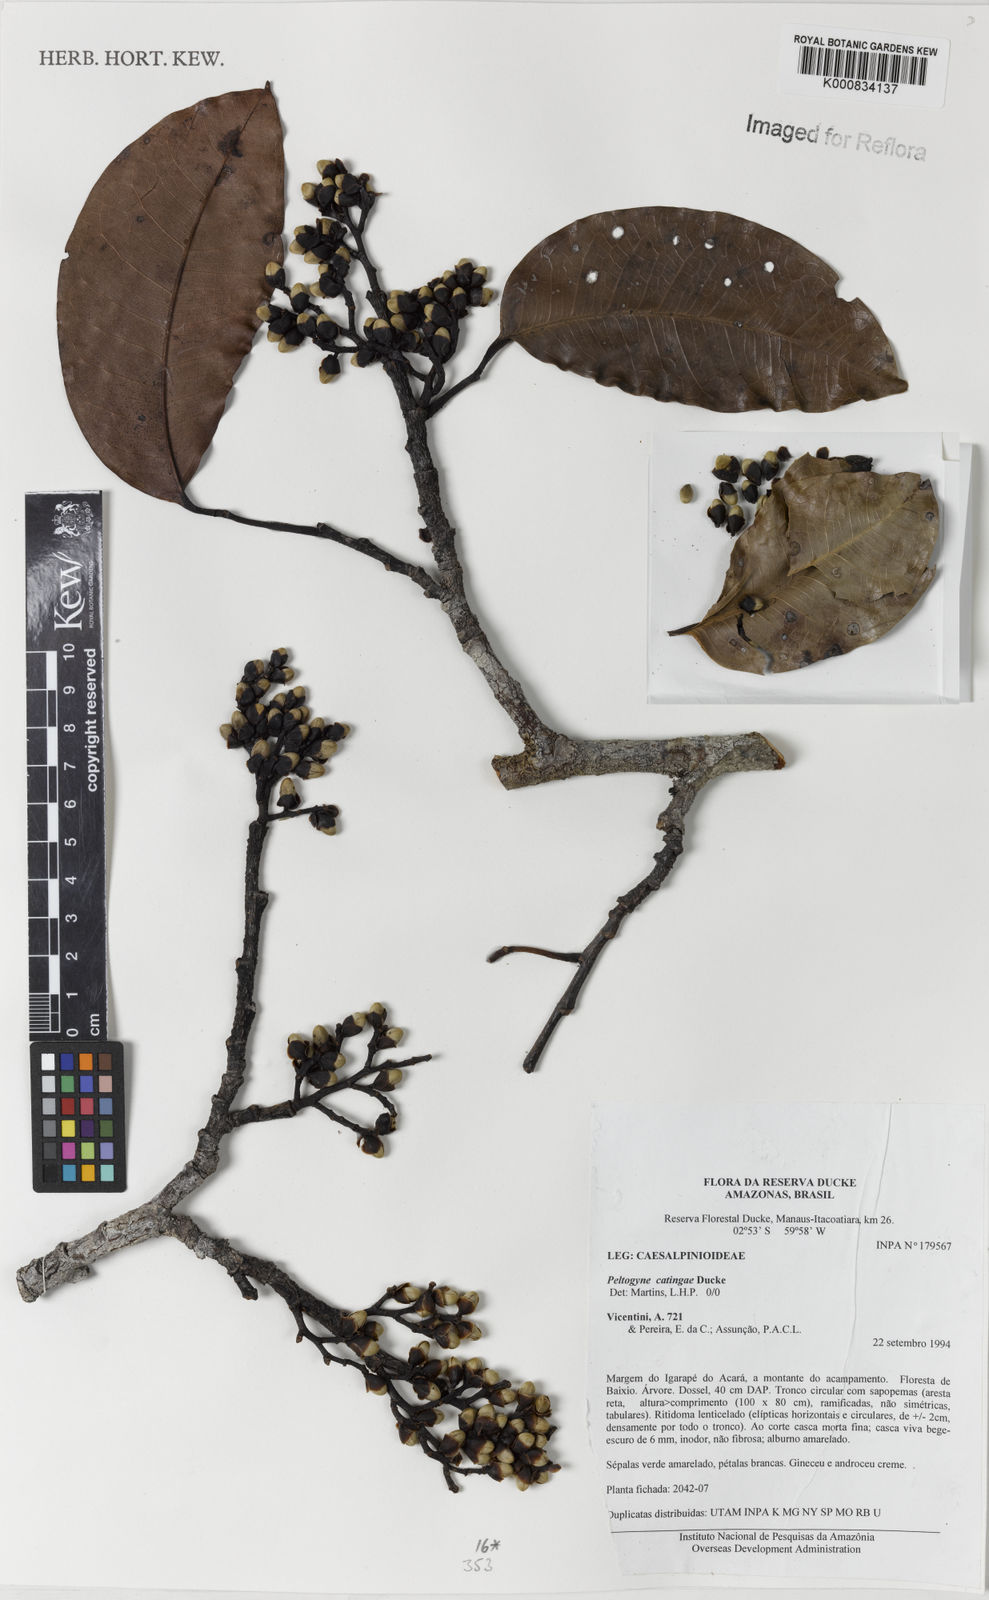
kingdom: Plantae
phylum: Tracheophyta
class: Magnoliopsida
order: Fabales
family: Fabaceae
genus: Peltogyne
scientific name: Peltogyne catingae
